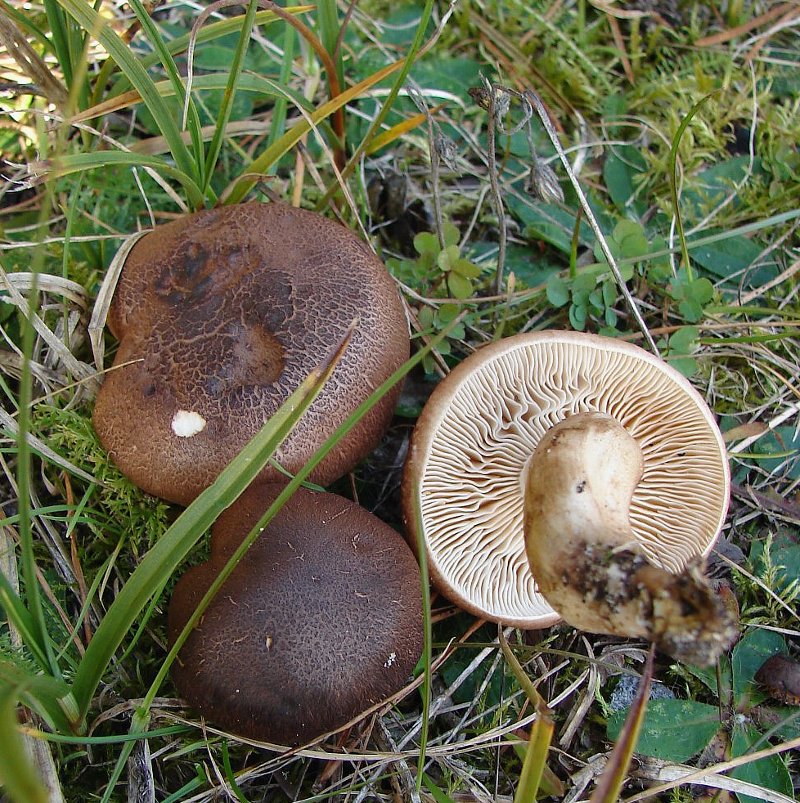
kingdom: Fungi
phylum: Basidiomycota
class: Agaricomycetes
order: Agaricales
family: Tricholomataceae
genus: Tricholoma
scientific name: Tricholoma imbricatum
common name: skællet ridderhat
